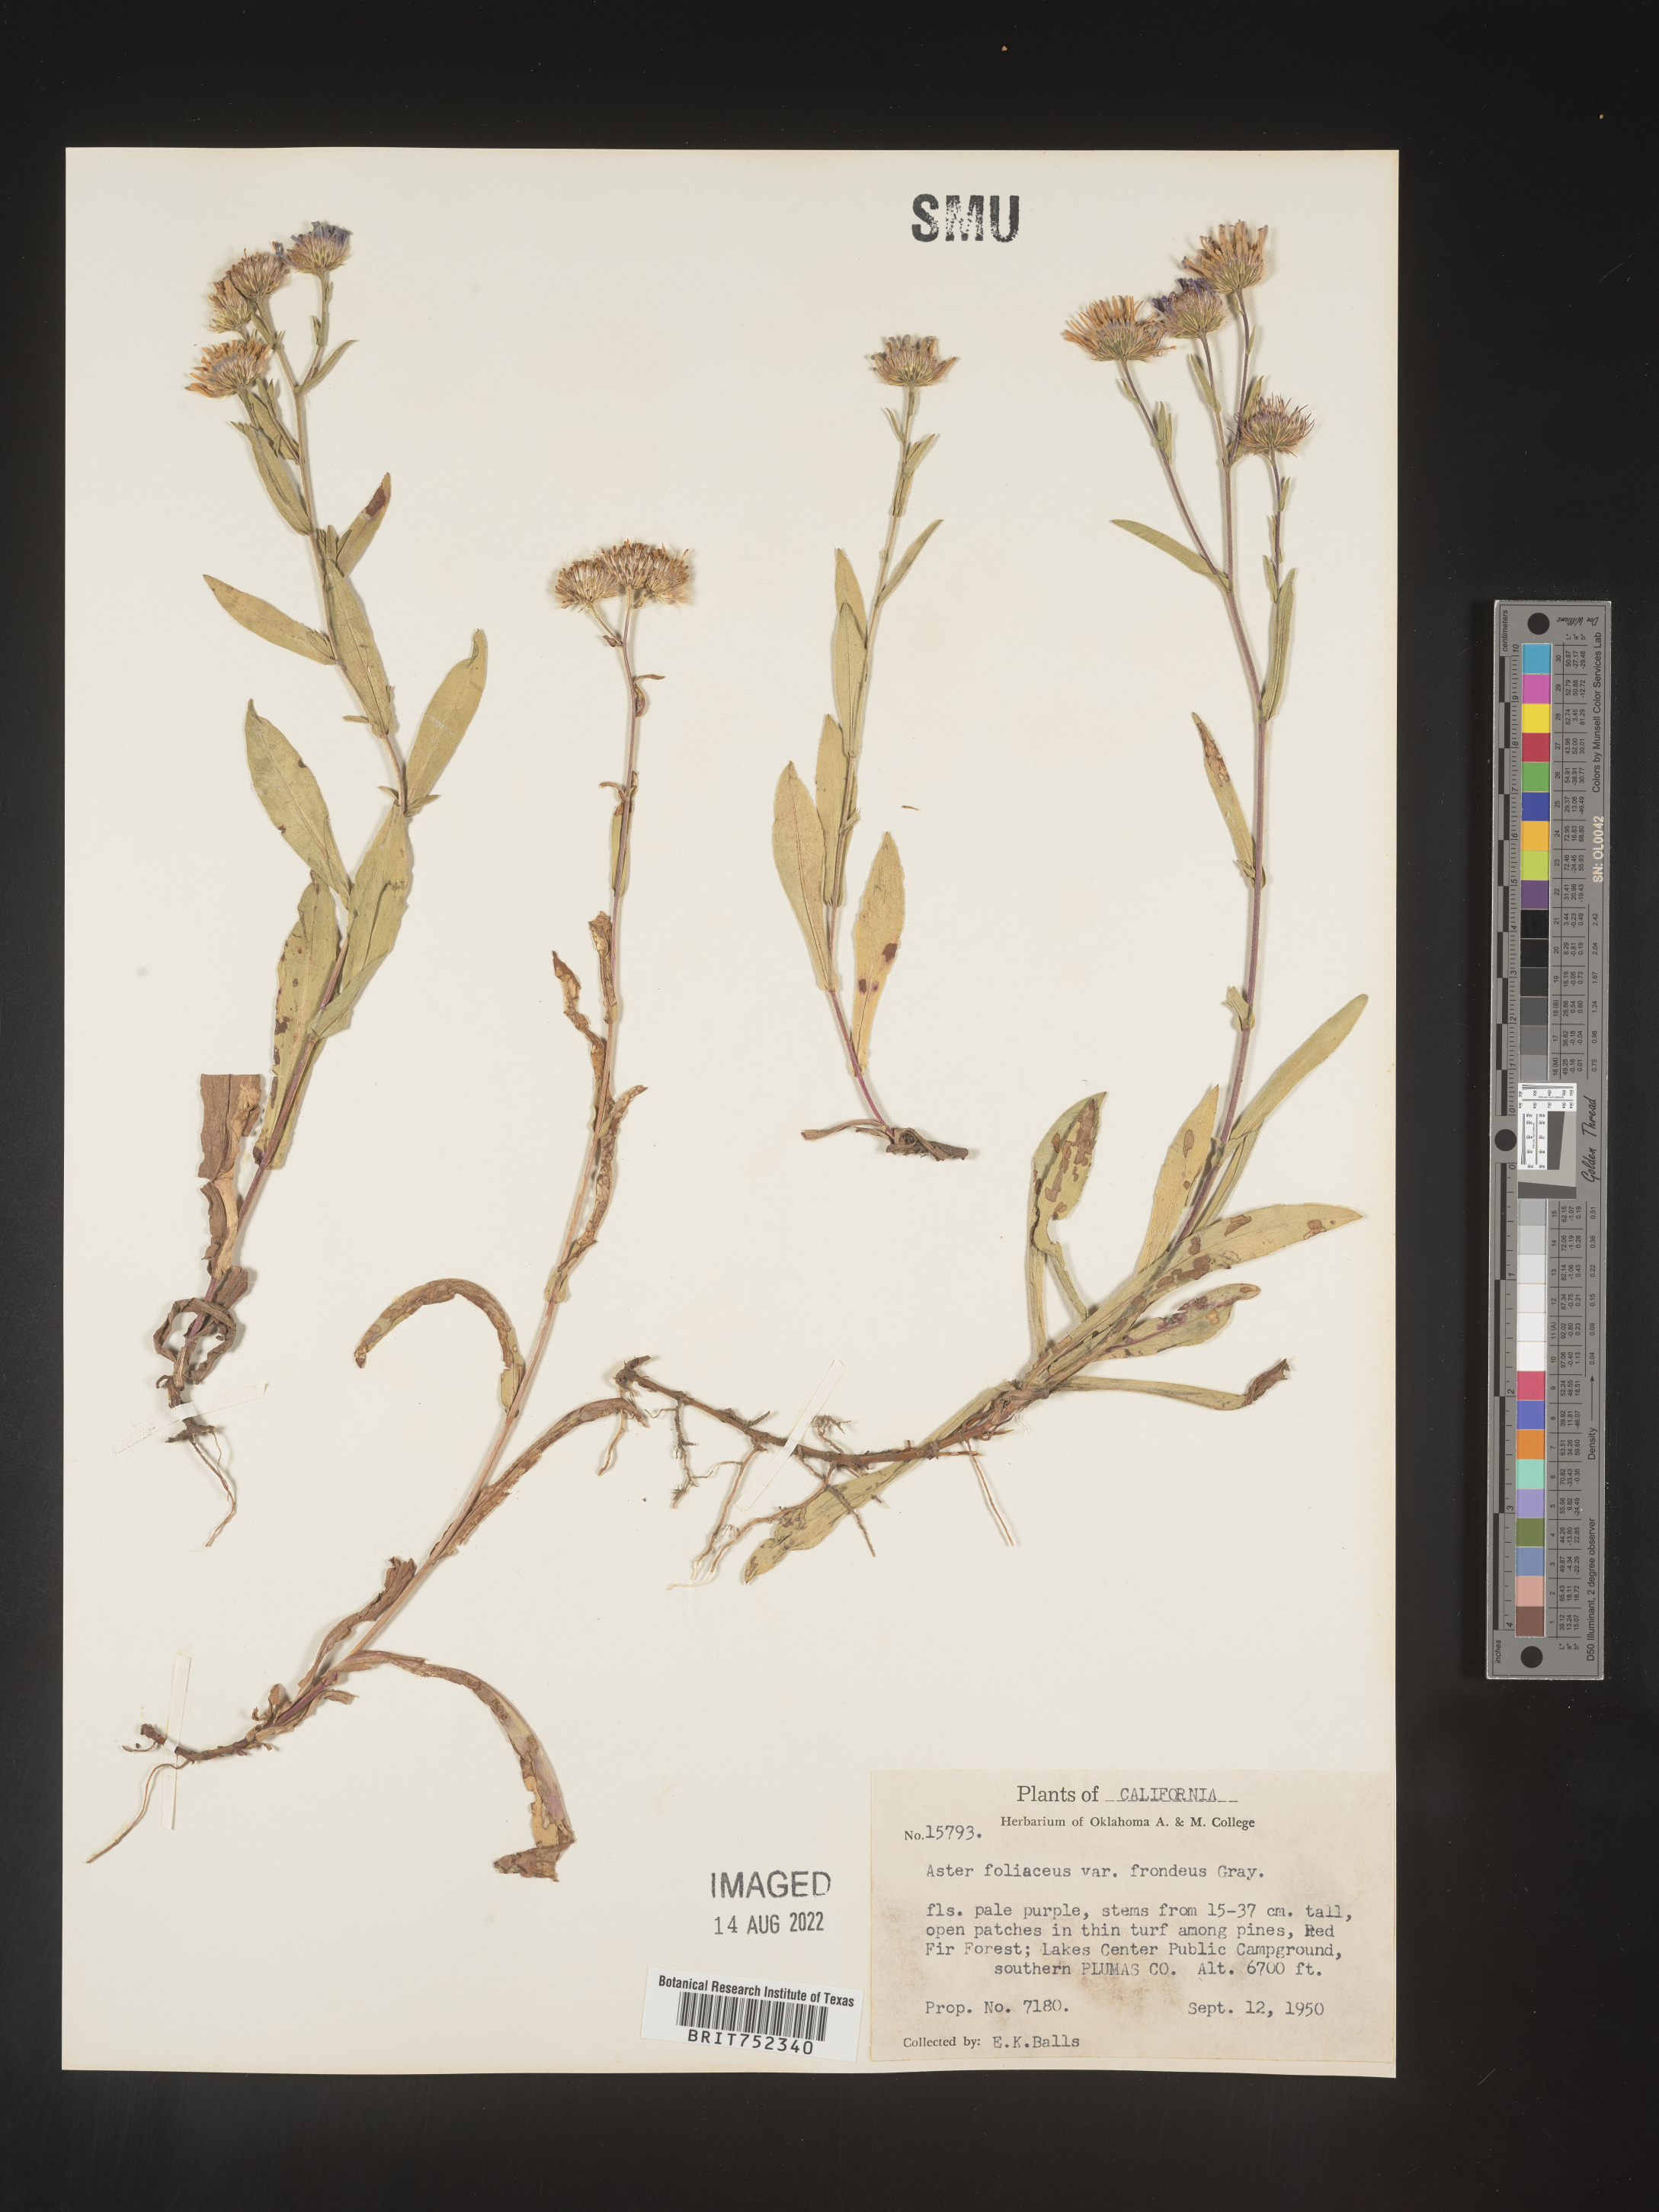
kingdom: Plantae
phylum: Tracheophyta
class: Magnoliopsida
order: Asterales
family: Asteraceae
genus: Symphyotrichum
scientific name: Symphyotrichum foliaceum
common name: Leafy aster
